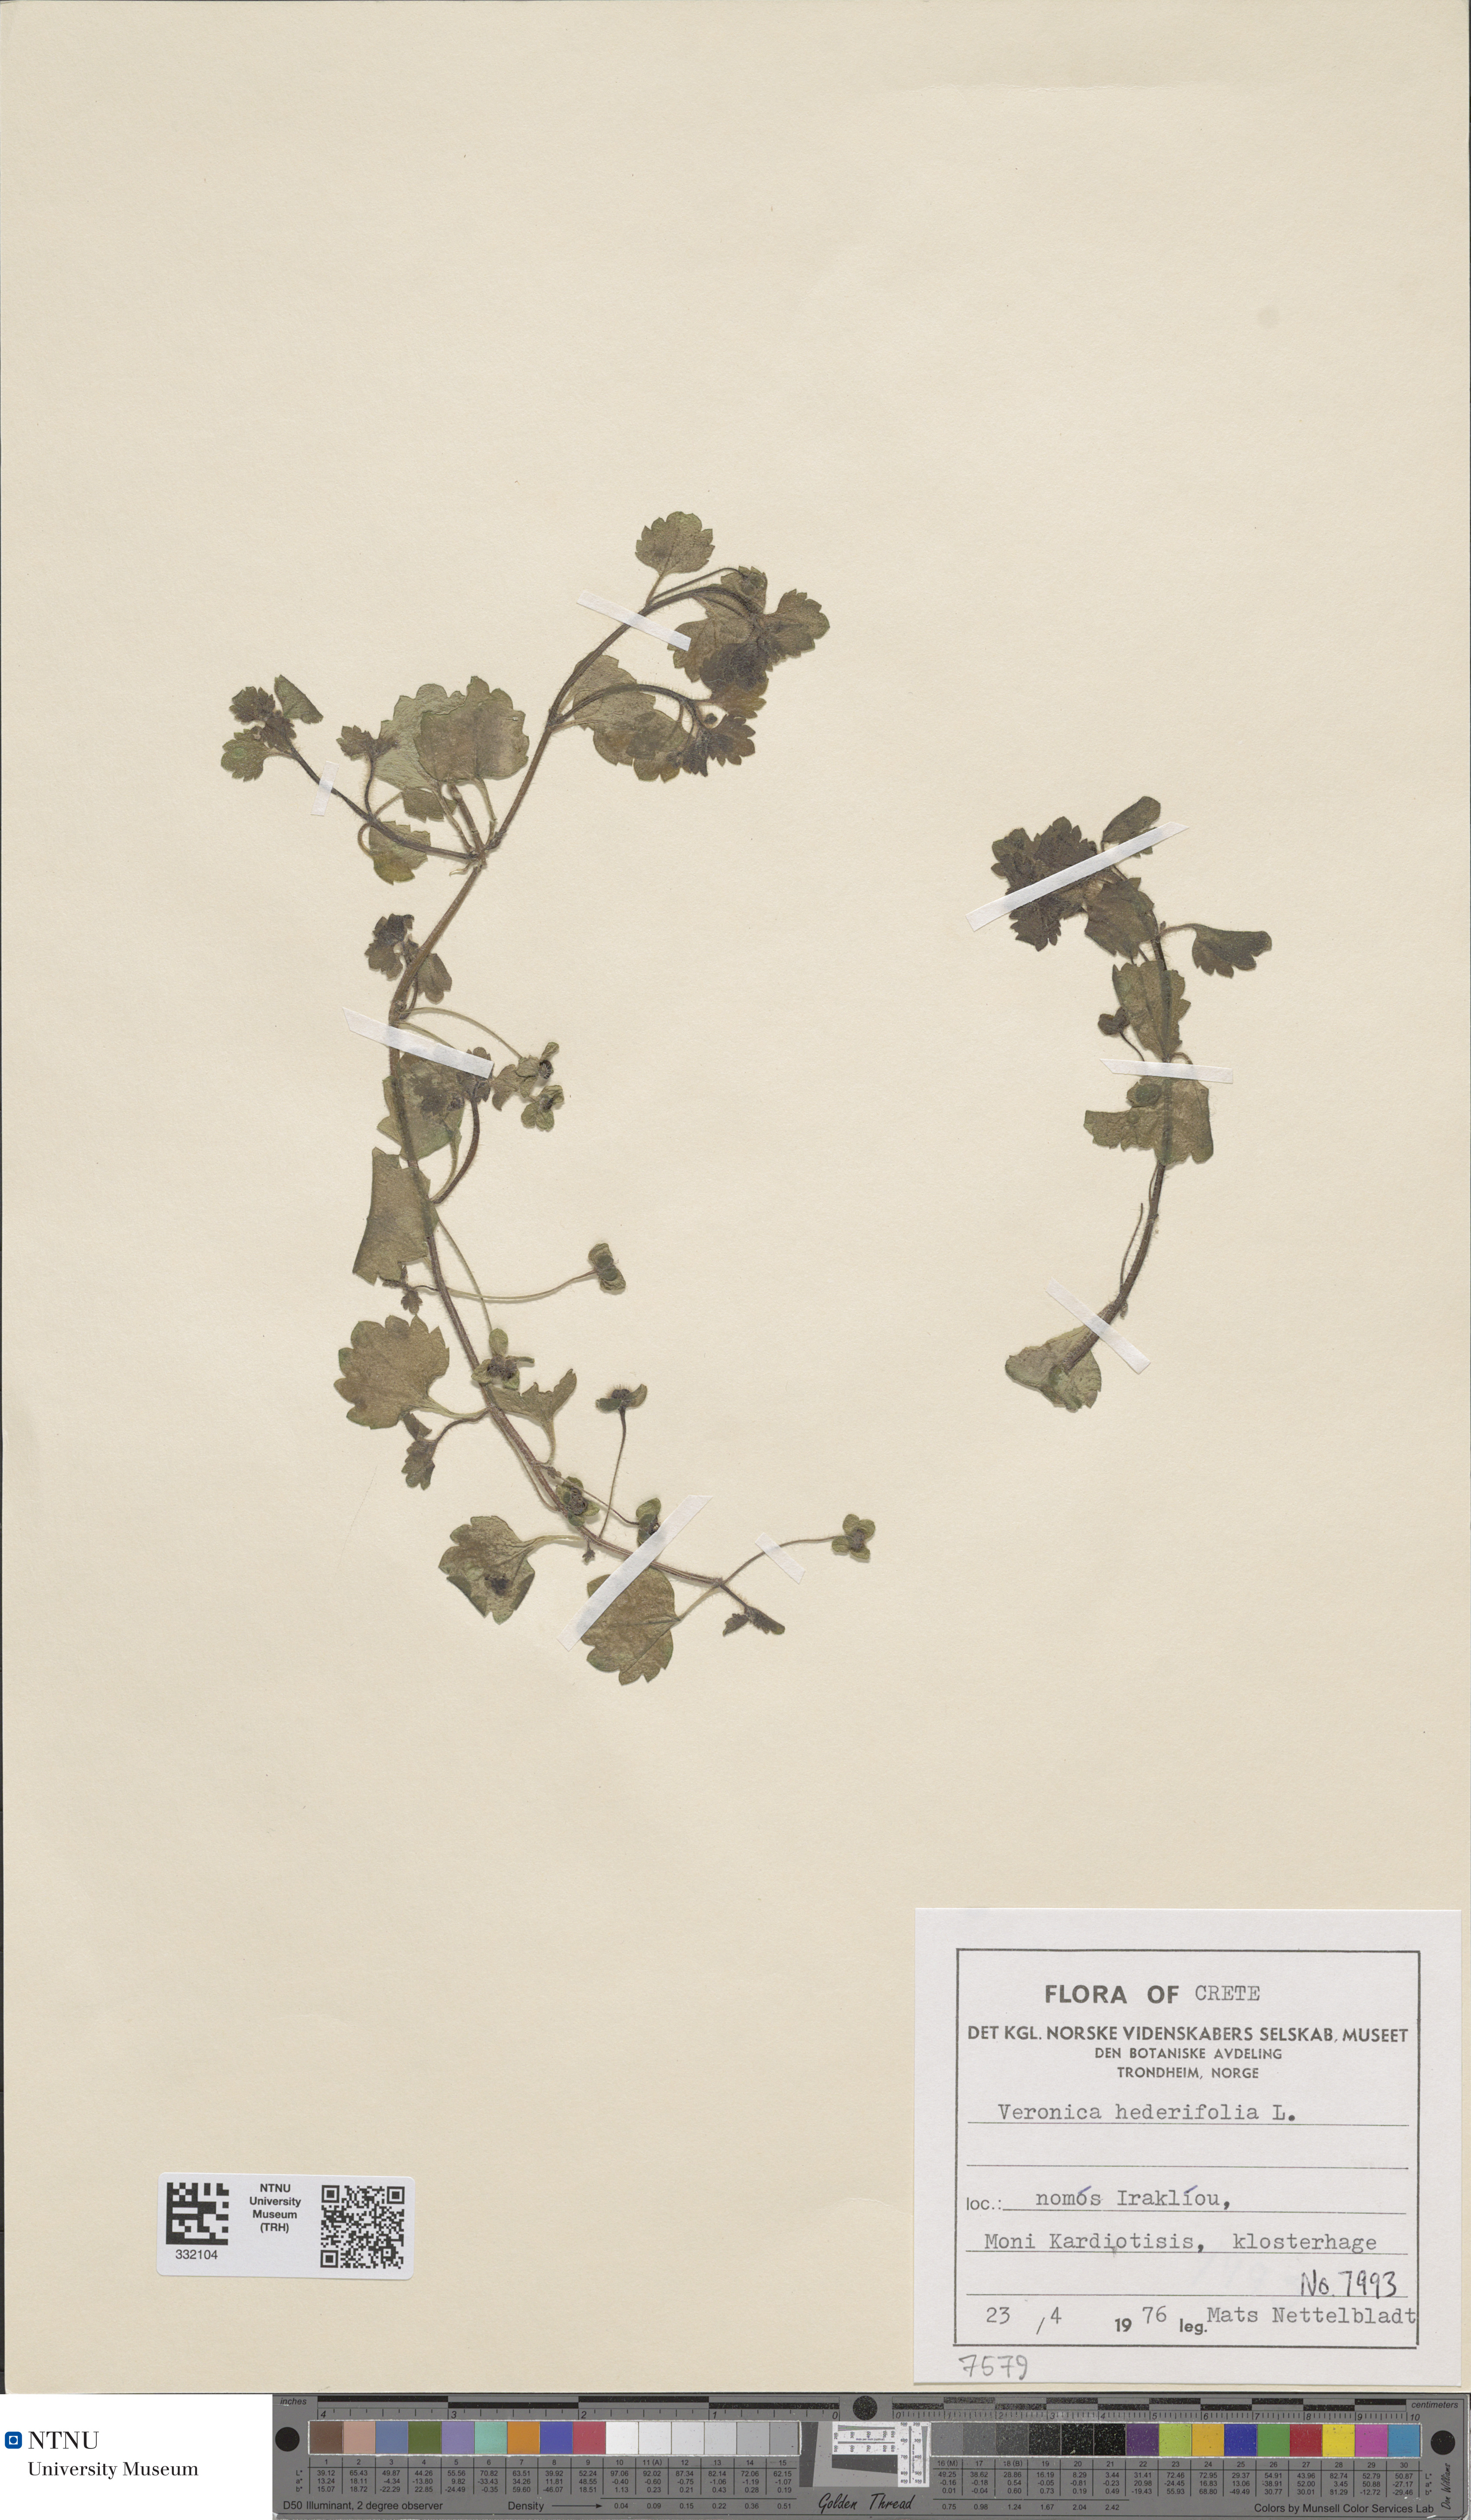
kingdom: Plantae
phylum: Tracheophyta
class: Magnoliopsida
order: Lamiales
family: Plantaginaceae
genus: Veronica
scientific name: Veronica hederifolia
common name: Ivy-leaved speedwell
